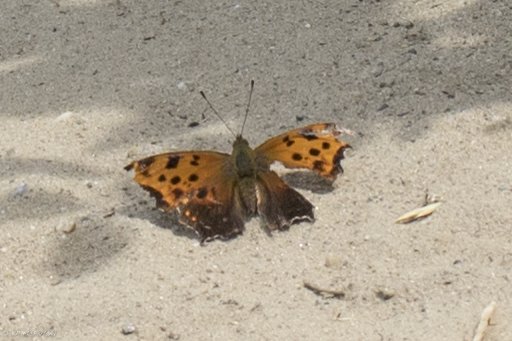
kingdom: Animalia
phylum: Arthropoda
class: Insecta
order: Lepidoptera
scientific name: Lepidoptera
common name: Butterflies
